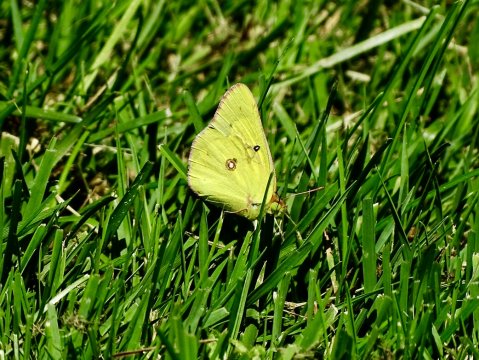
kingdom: Animalia
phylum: Arthropoda
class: Insecta
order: Lepidoptera
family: Pieridae
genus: Colias
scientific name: Colias eurytheme
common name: Orange Sulphur
